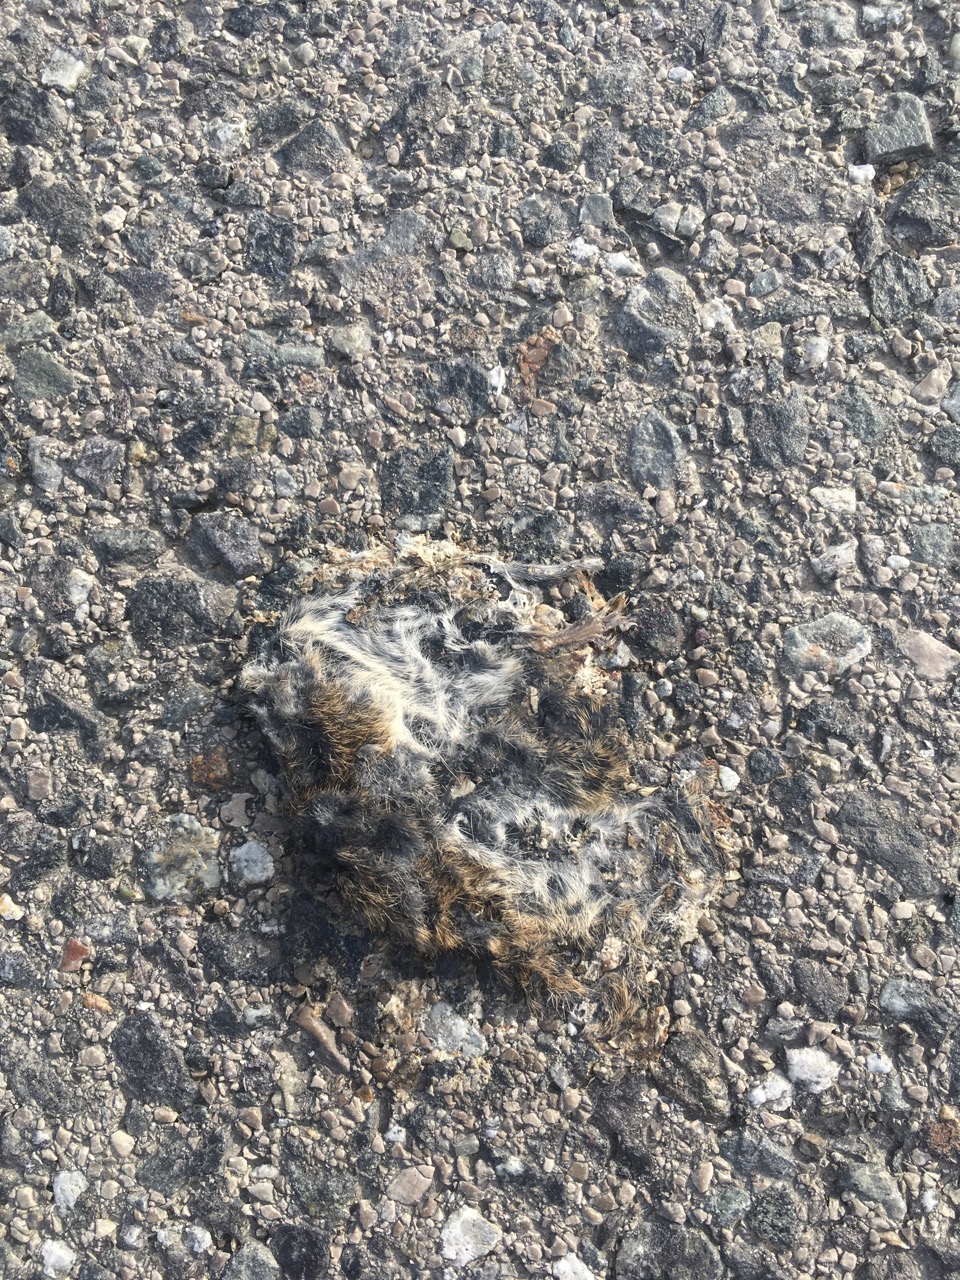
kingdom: Animalia
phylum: Chordata
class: Mammalia
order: Rodentia
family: Cricetidae
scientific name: Cricetidae
